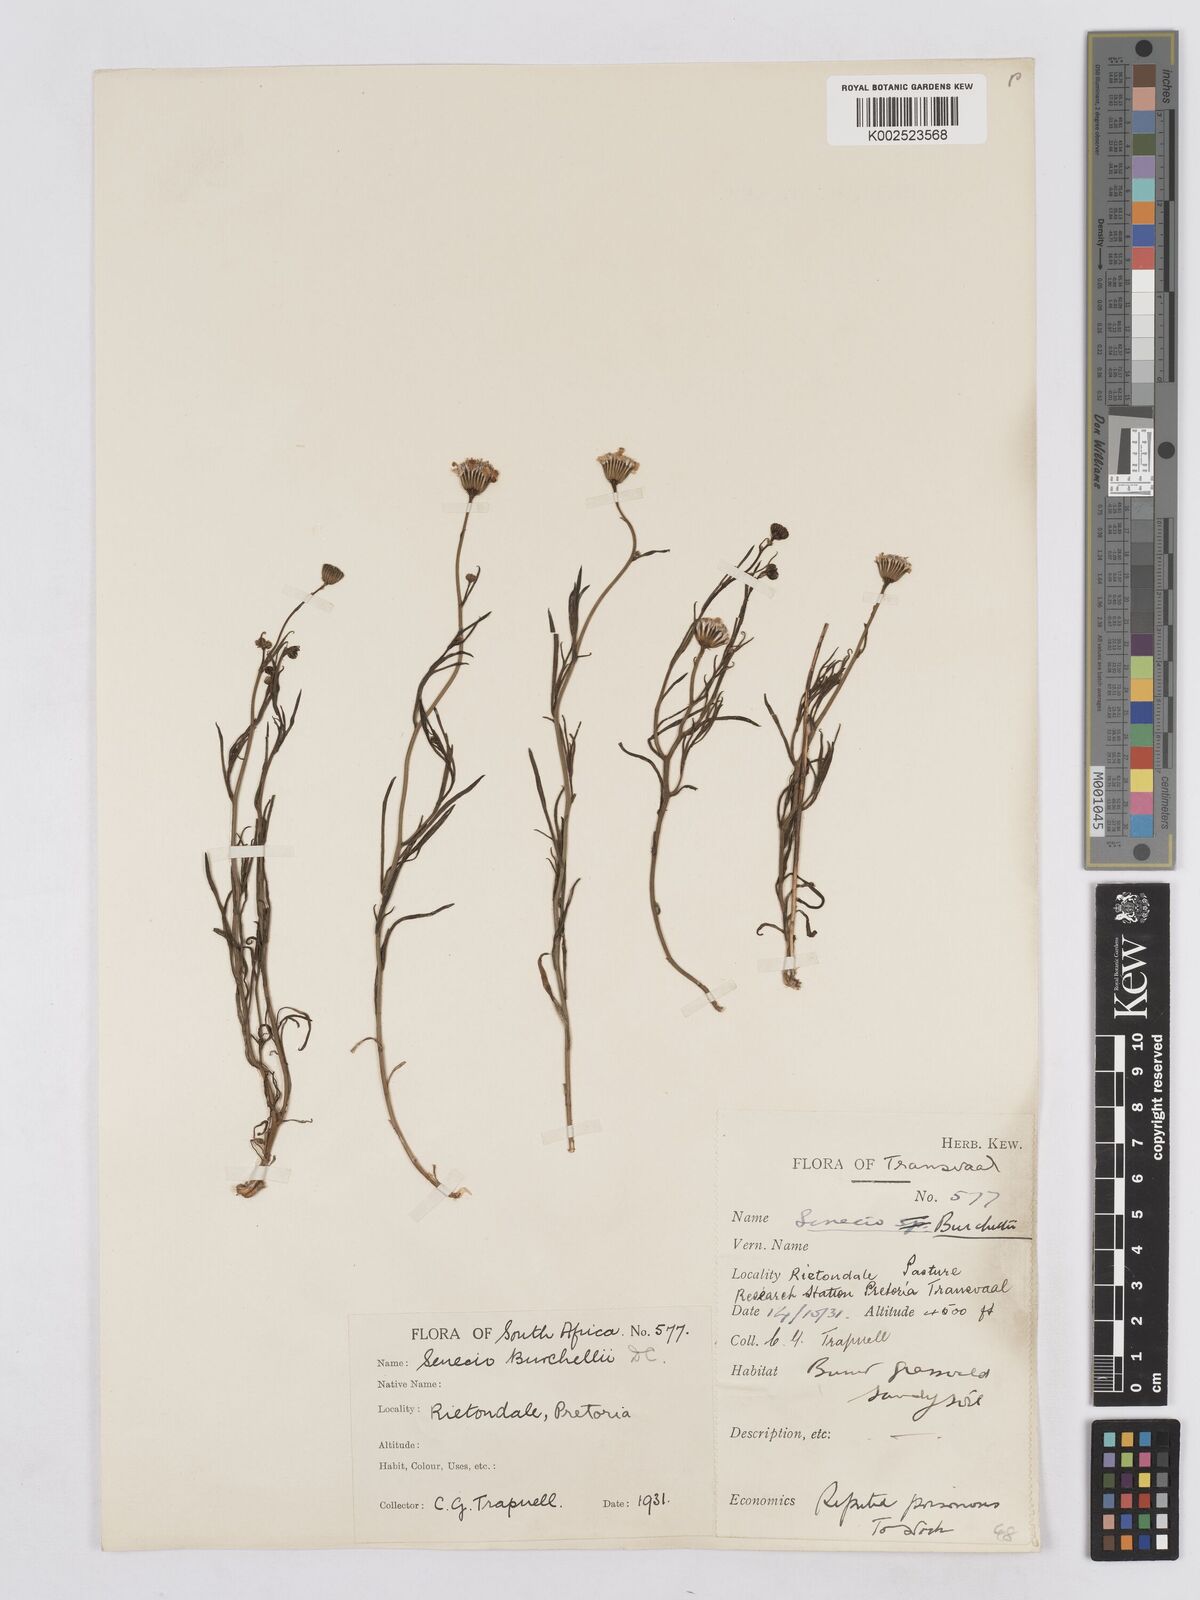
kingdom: Plantae
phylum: Tracheophyta
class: Magnoliopsida
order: Asterales
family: Asteraceae
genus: Senecio
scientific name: Senecio inaequidens
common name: Narrow-leaved ragwort
